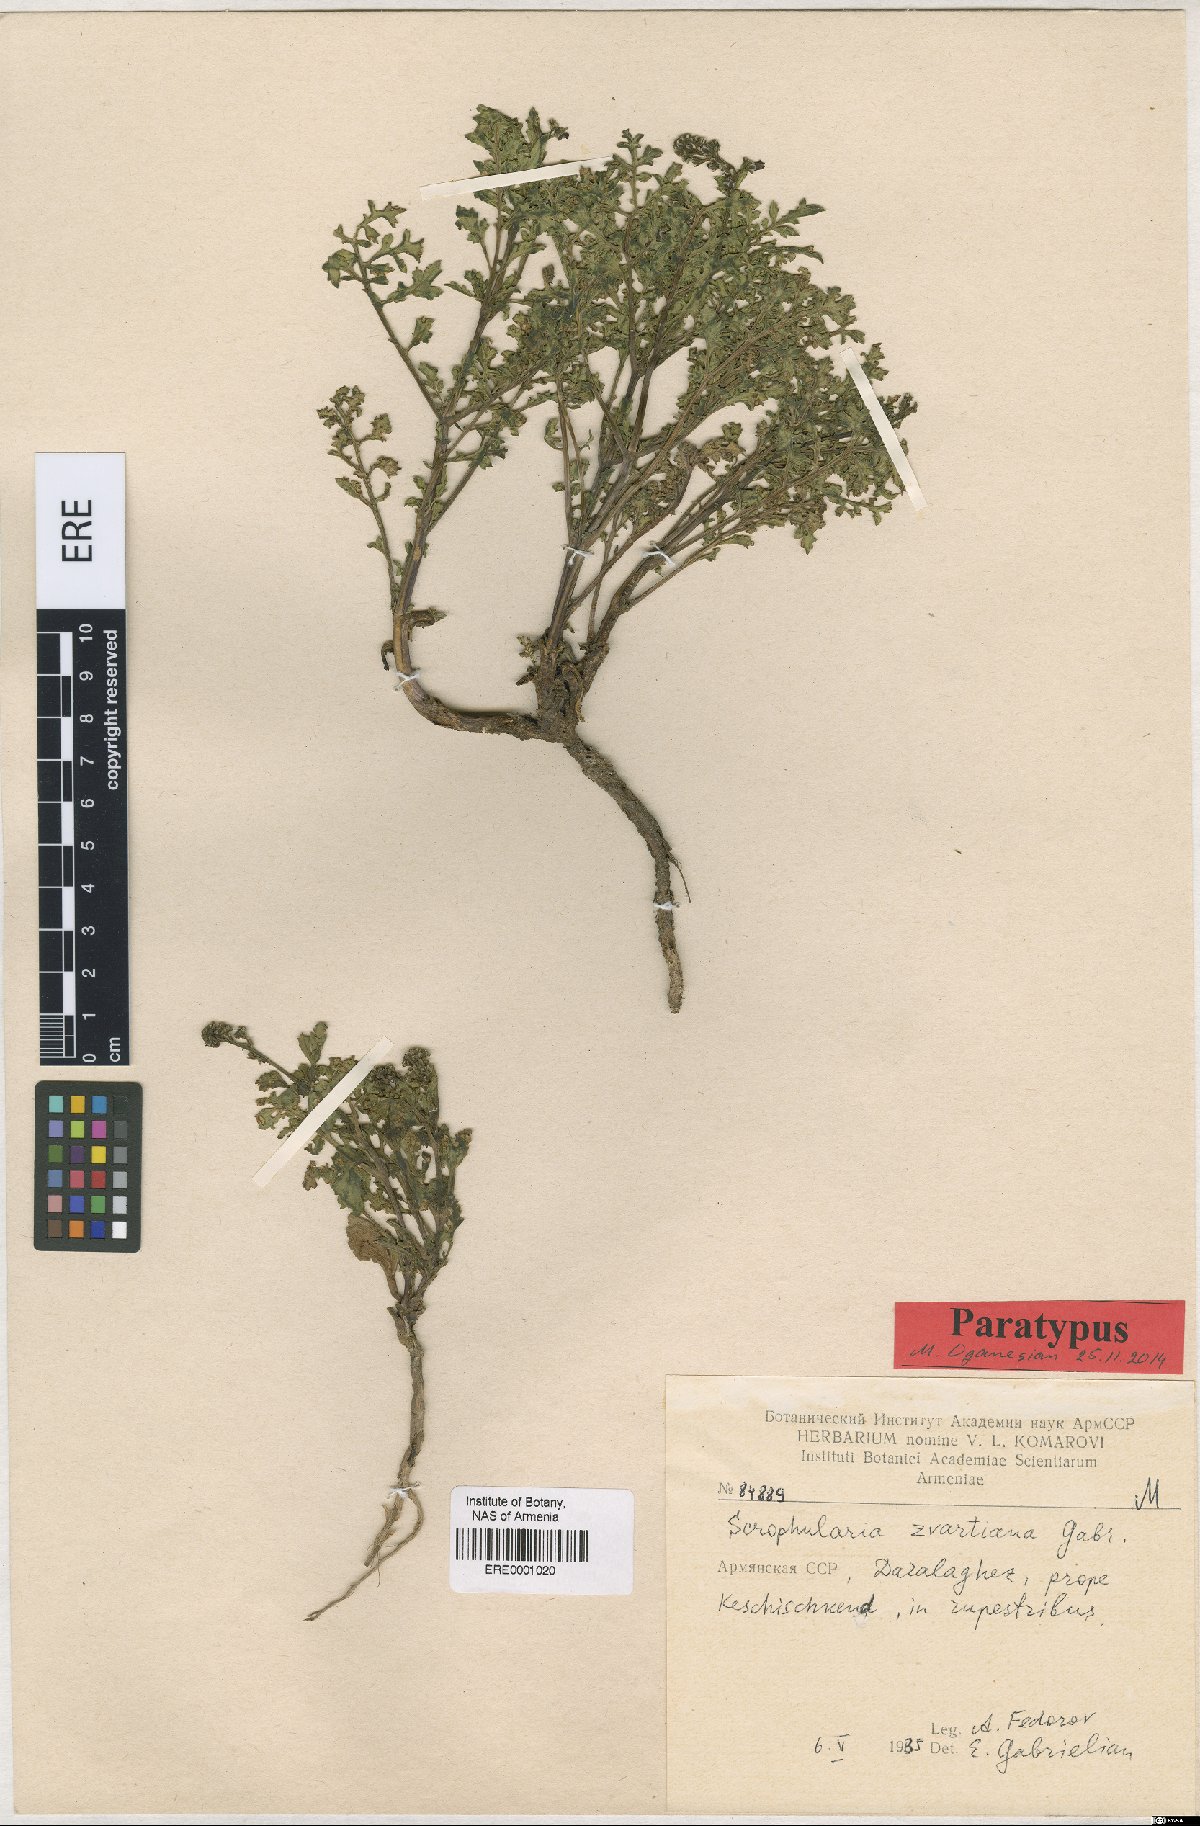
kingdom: Plantae
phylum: Tracheophyta
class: Magnoliopsida
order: Lamiales
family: Scrophulariaceae
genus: Scrophularia
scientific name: Scrophularia zvartiana
